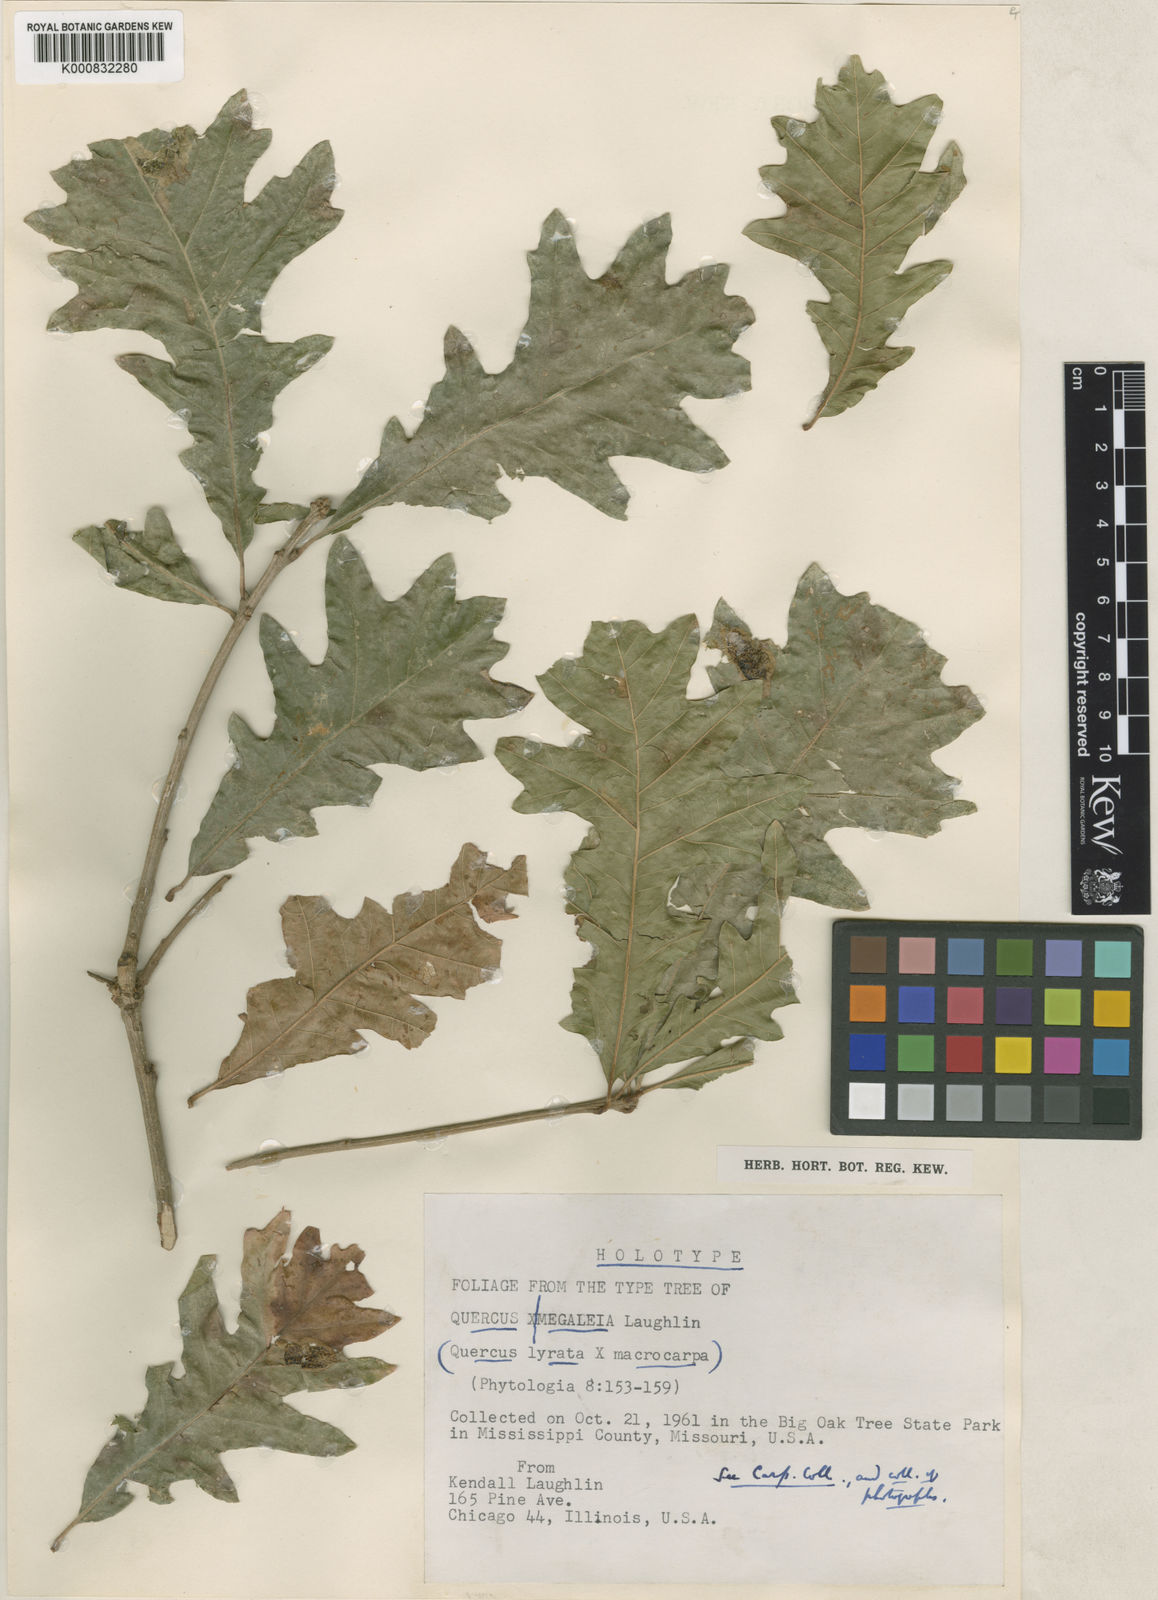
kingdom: Plantae
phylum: Tracheophyta
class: Magnoliopsida
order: Fagales
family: Fagaceae
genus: Quercus
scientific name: Quercus megaleia
